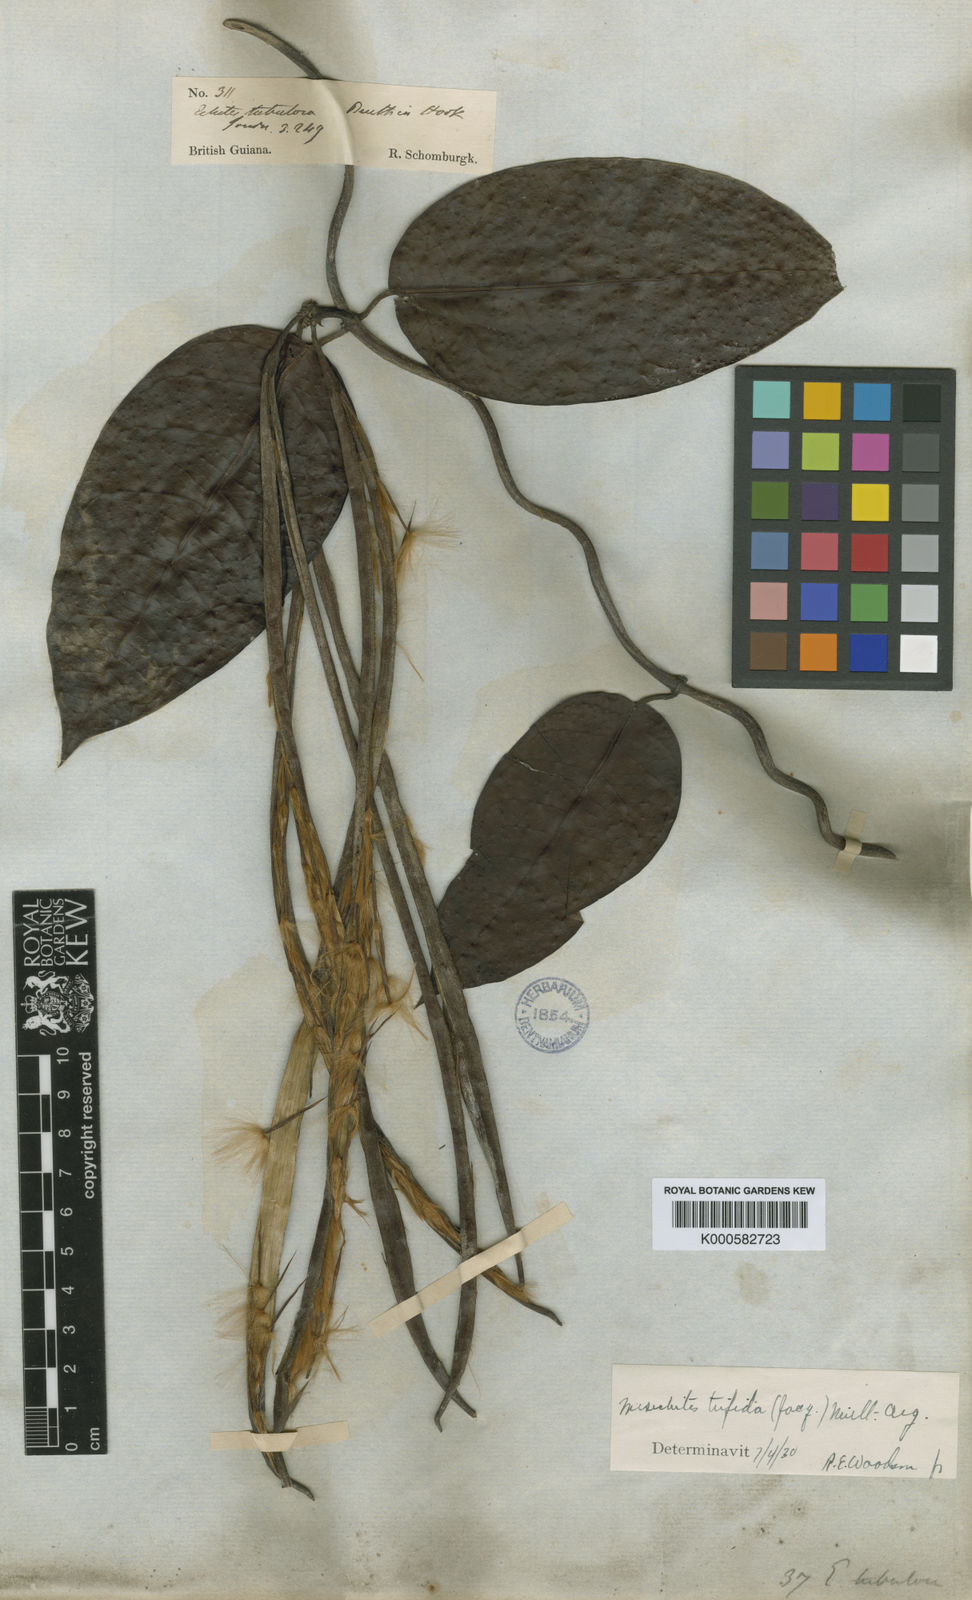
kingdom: Plantae
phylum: Tracheophyta
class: Magnoliopsida
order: Gentianales
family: Apocynaceae
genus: Mesechites
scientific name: Mesechites
